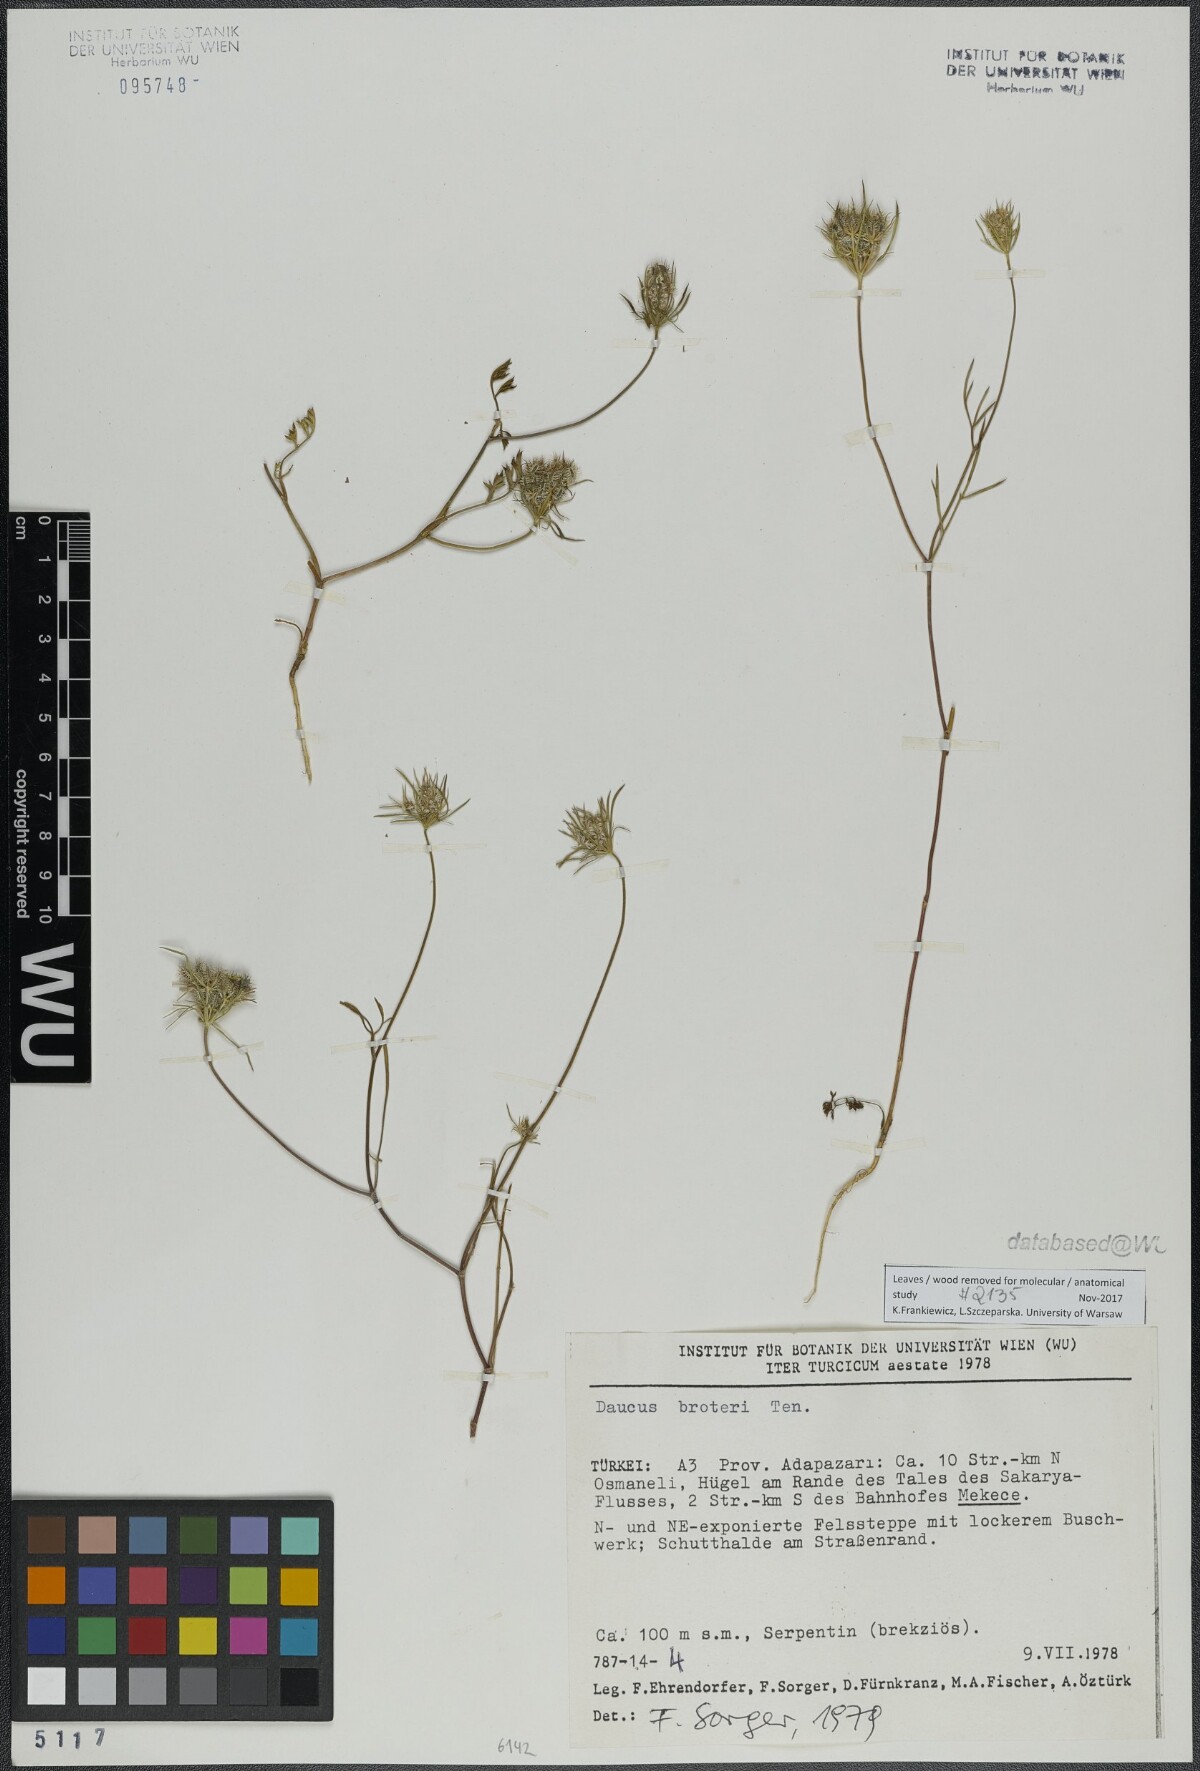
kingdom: Plantae
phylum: Tracheophyta
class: Magnoliopsida
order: Apiales
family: Apiaceae
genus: Daucus
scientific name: Daucus broteroi
